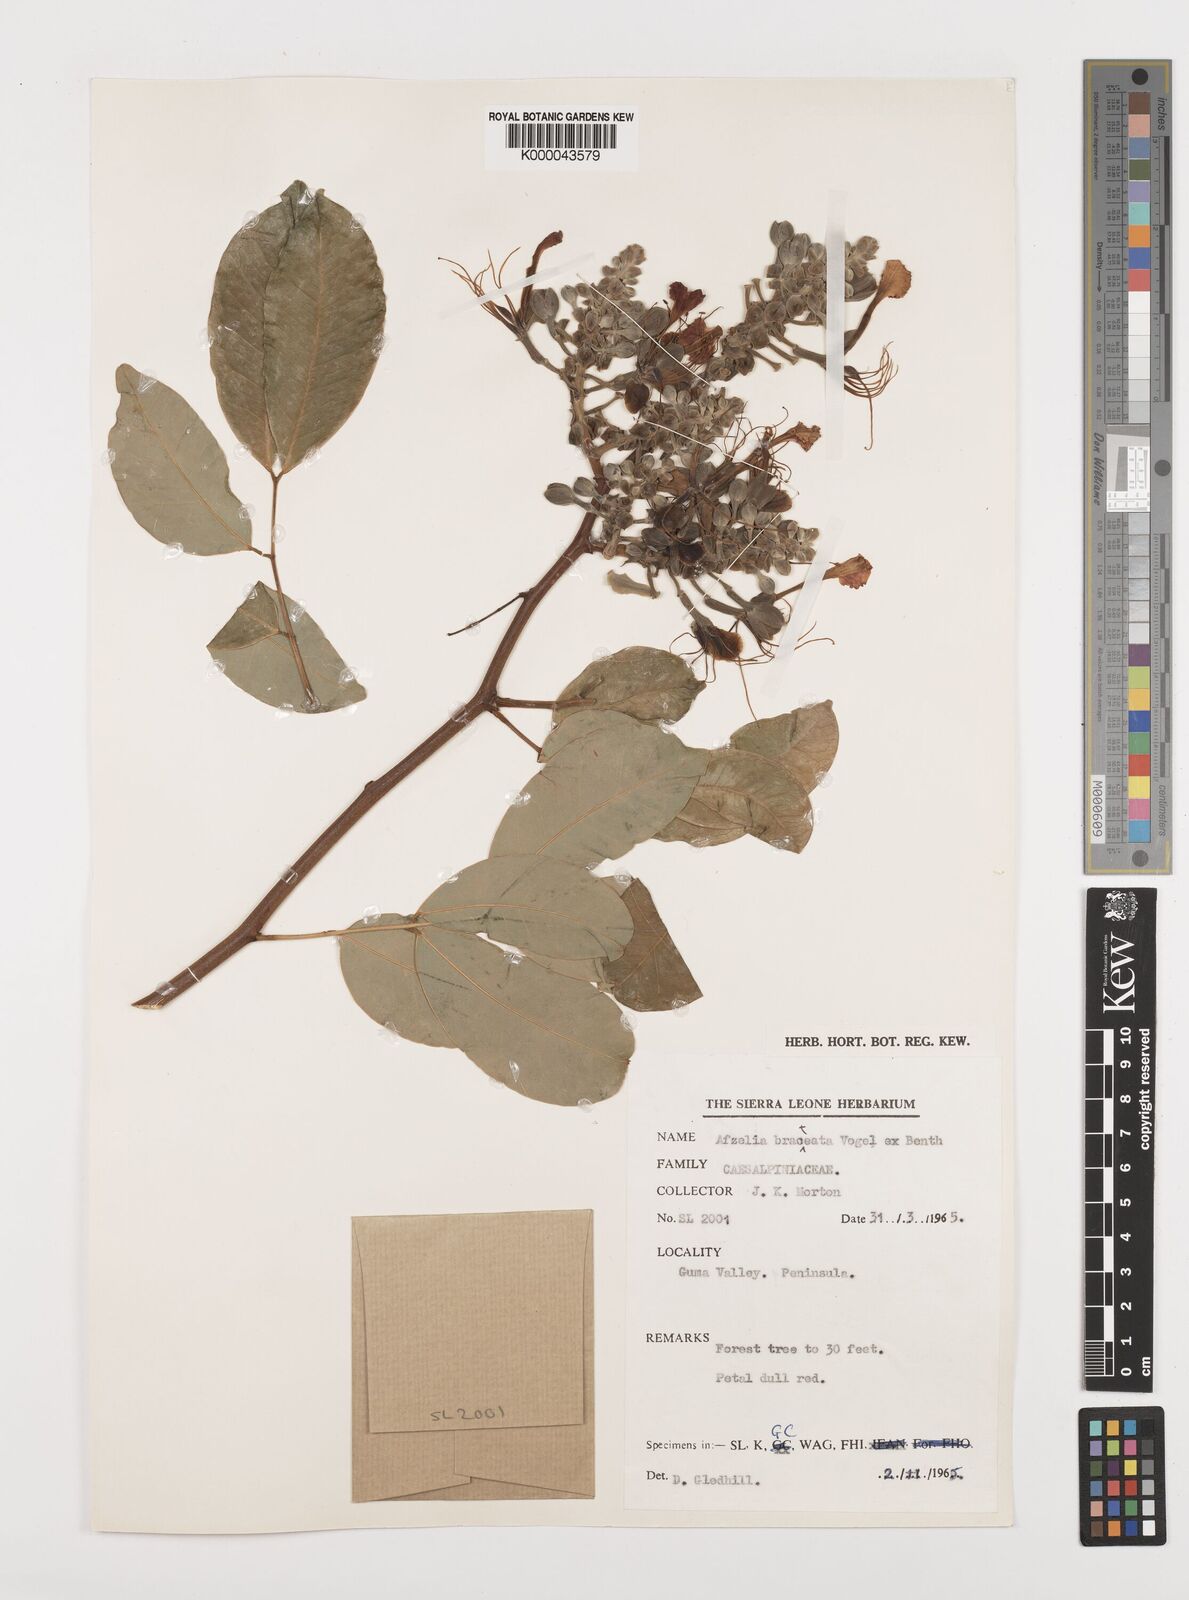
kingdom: Plantae
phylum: Tracheophyta
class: Magnoliopsida
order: Fabales
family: Fabaceae
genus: Afzelia
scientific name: Afzelia
